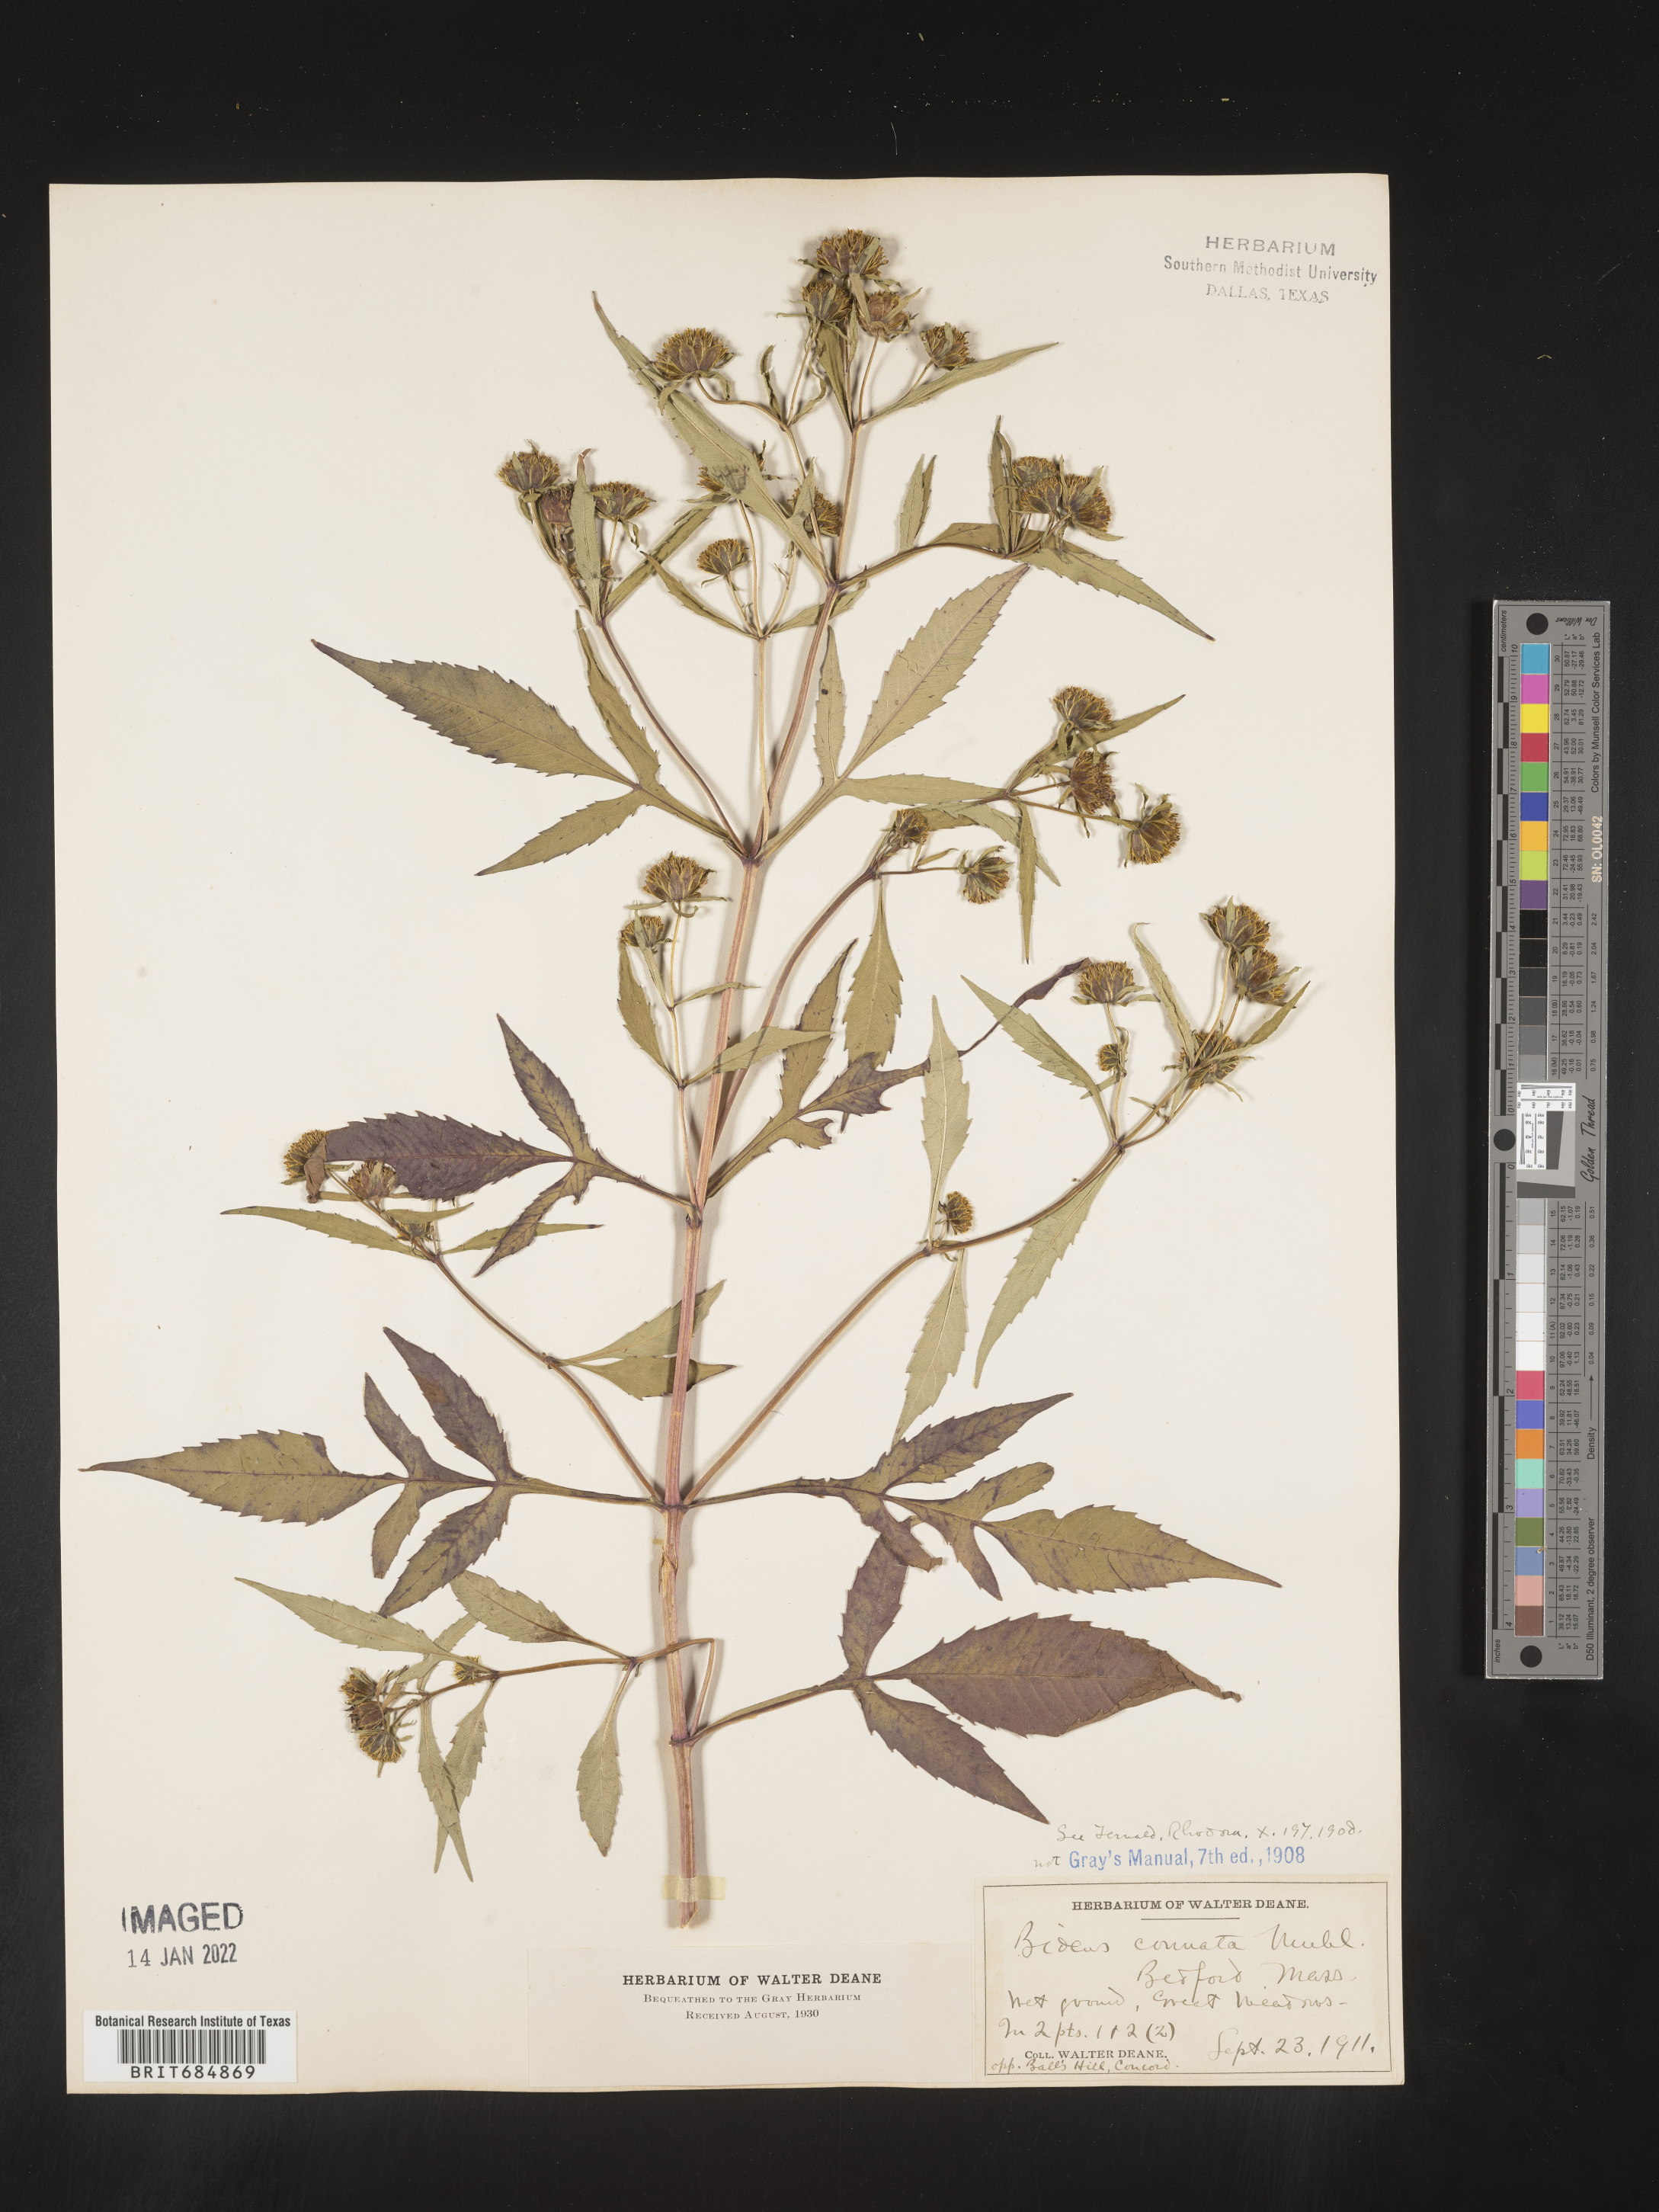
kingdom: Plantae
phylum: Tracheophyta
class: Magnoliopsida
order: Asterales
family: Asteraceae
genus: Bidens
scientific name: Bidens tripartita
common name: Trifid bur-marigold
